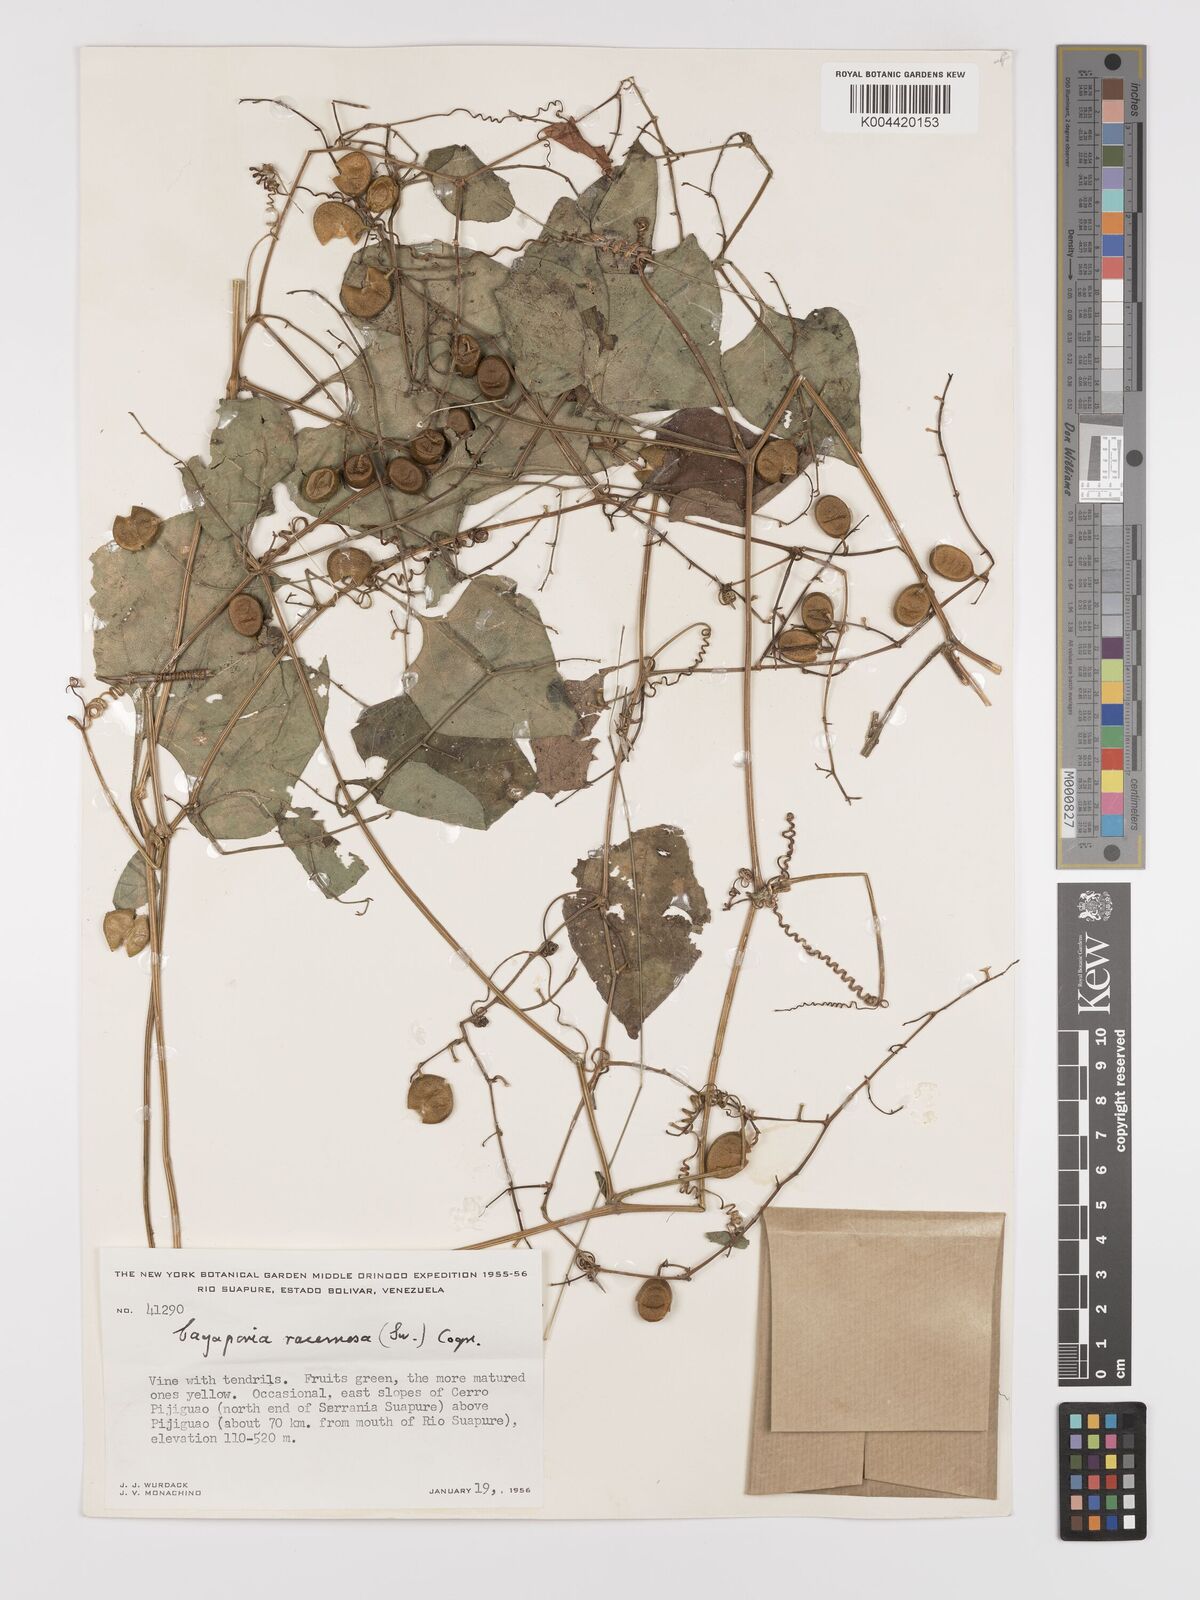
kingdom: Plantae
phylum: Tracheophyta
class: Magnoliopsida
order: Cucurbitales
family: Cucurbitaceae
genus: Cayaponia
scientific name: Cayaponia racemosa
